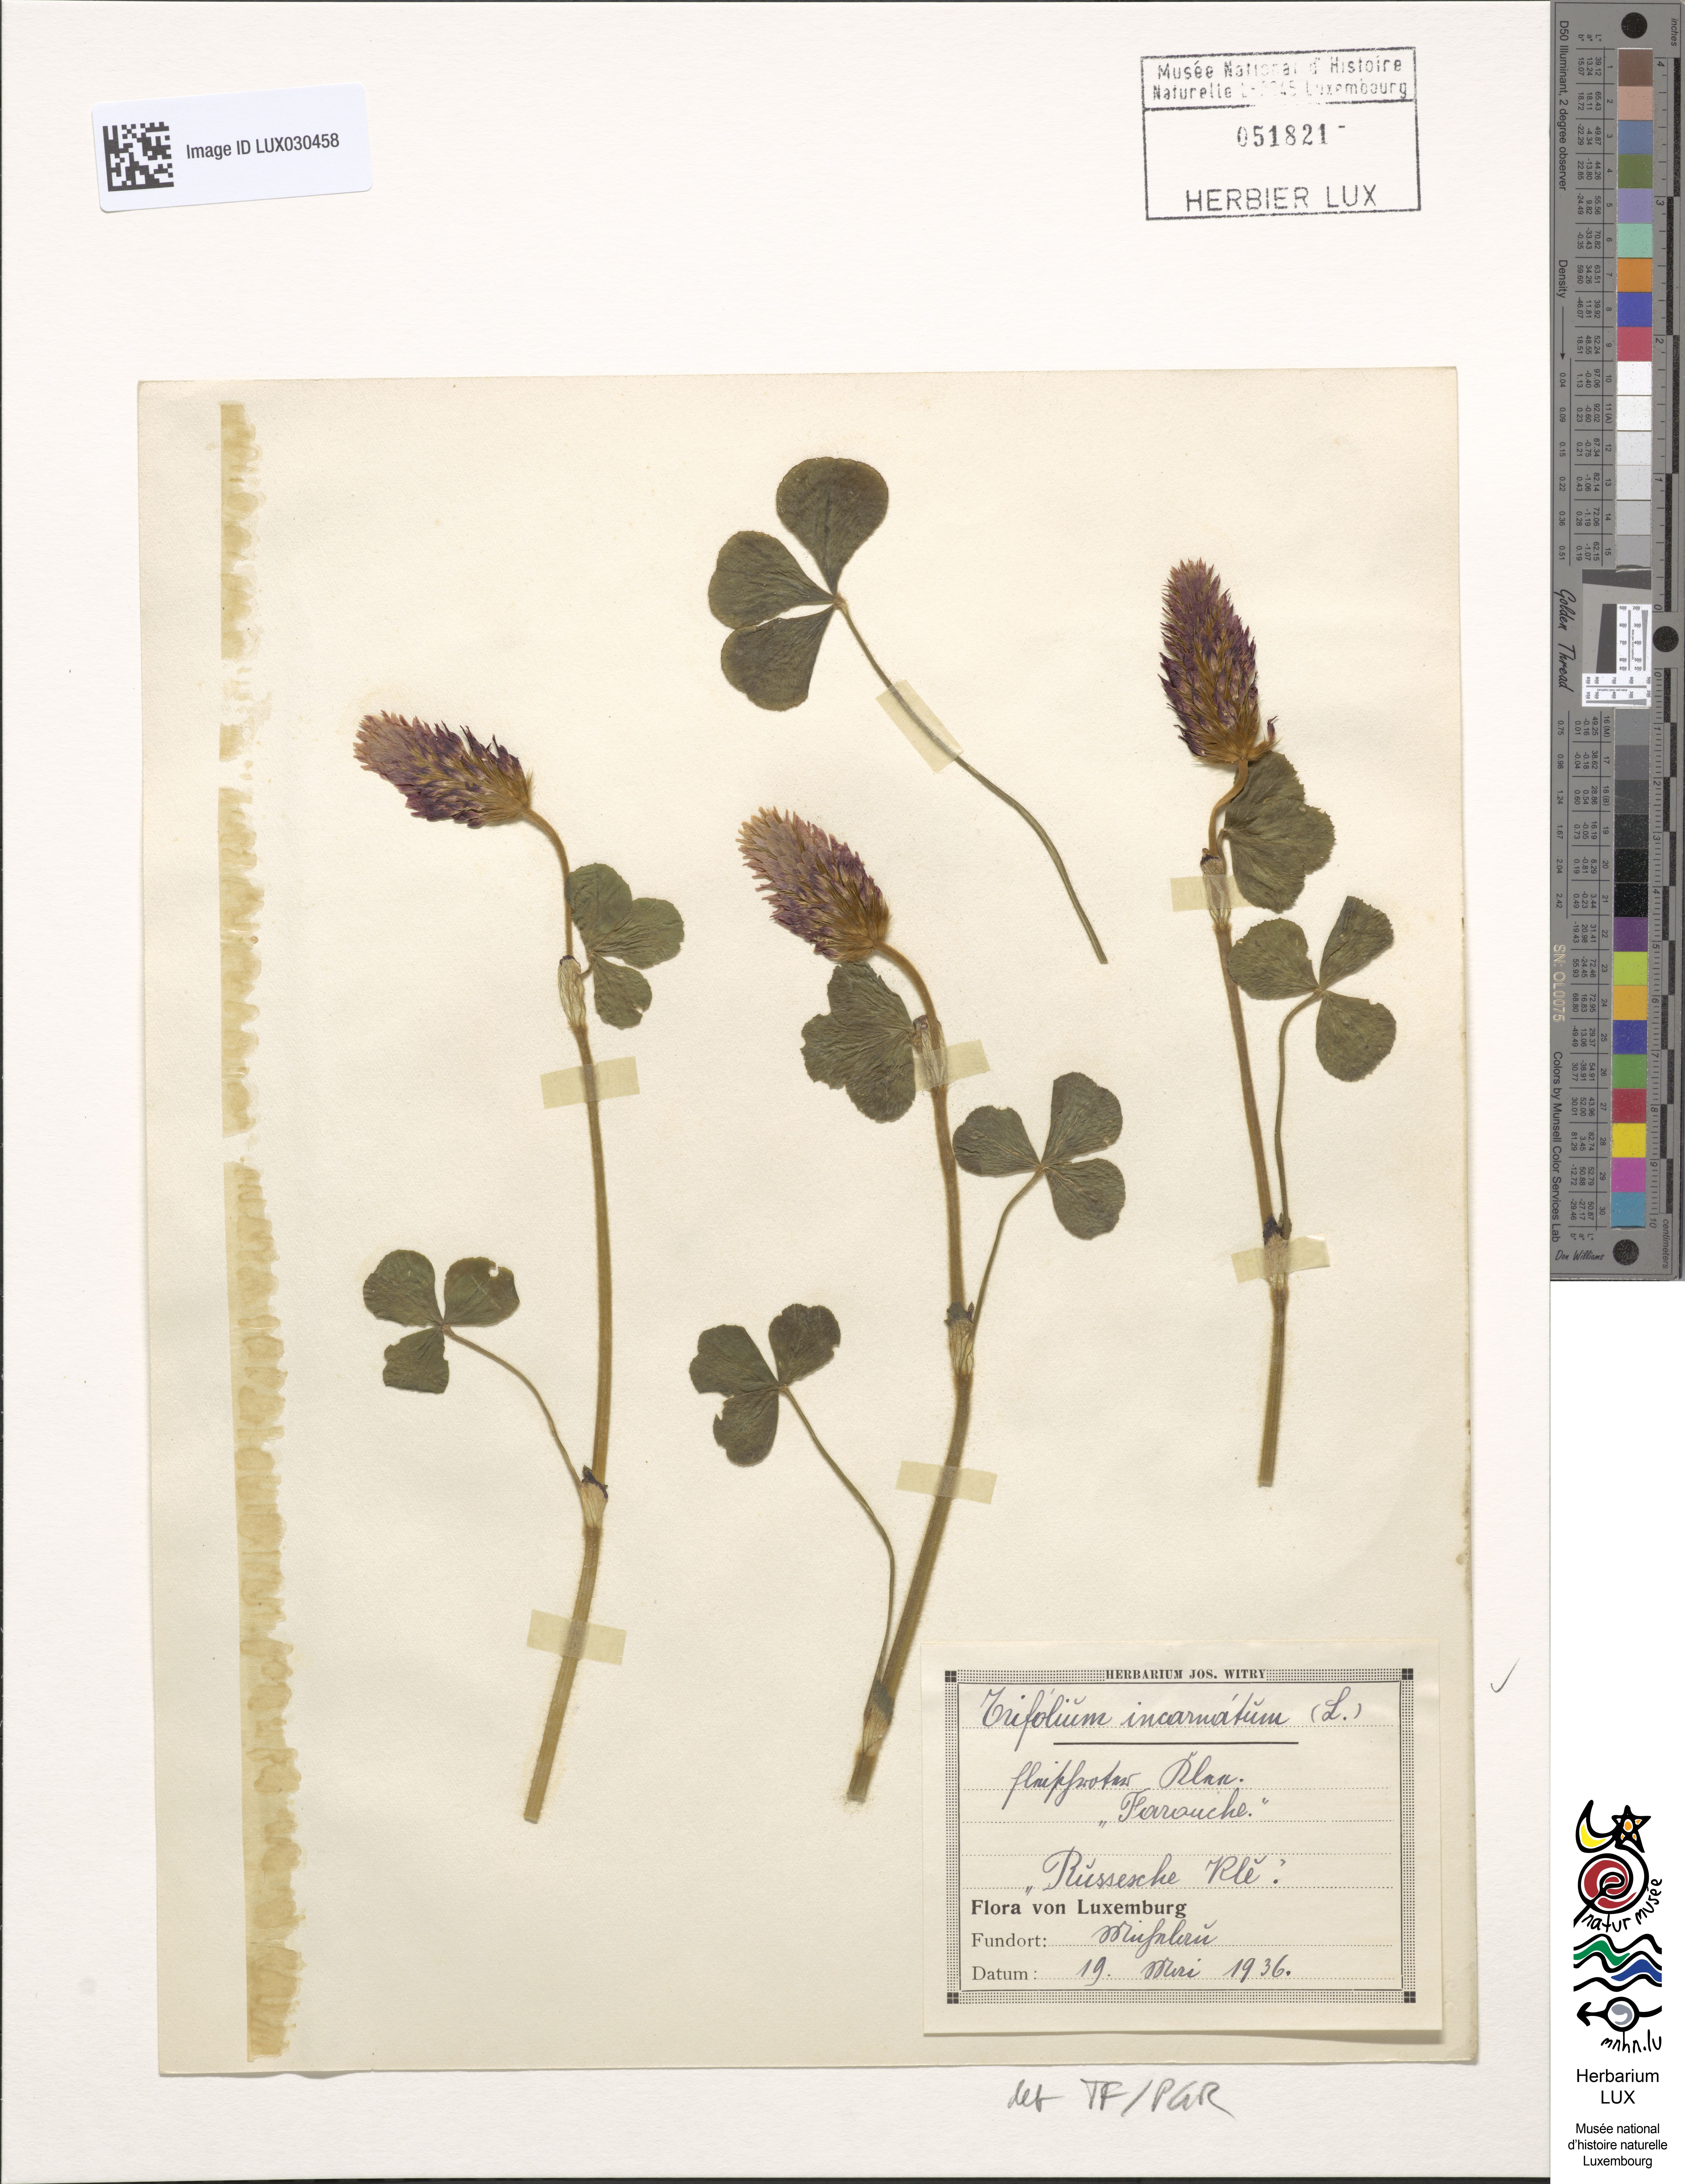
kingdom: Plantae
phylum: Tracheophyta
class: Magnoliopsida
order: Fabales
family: Fabaceae
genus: Trifolium
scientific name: Trifolium incarnatum
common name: Crimson clover
